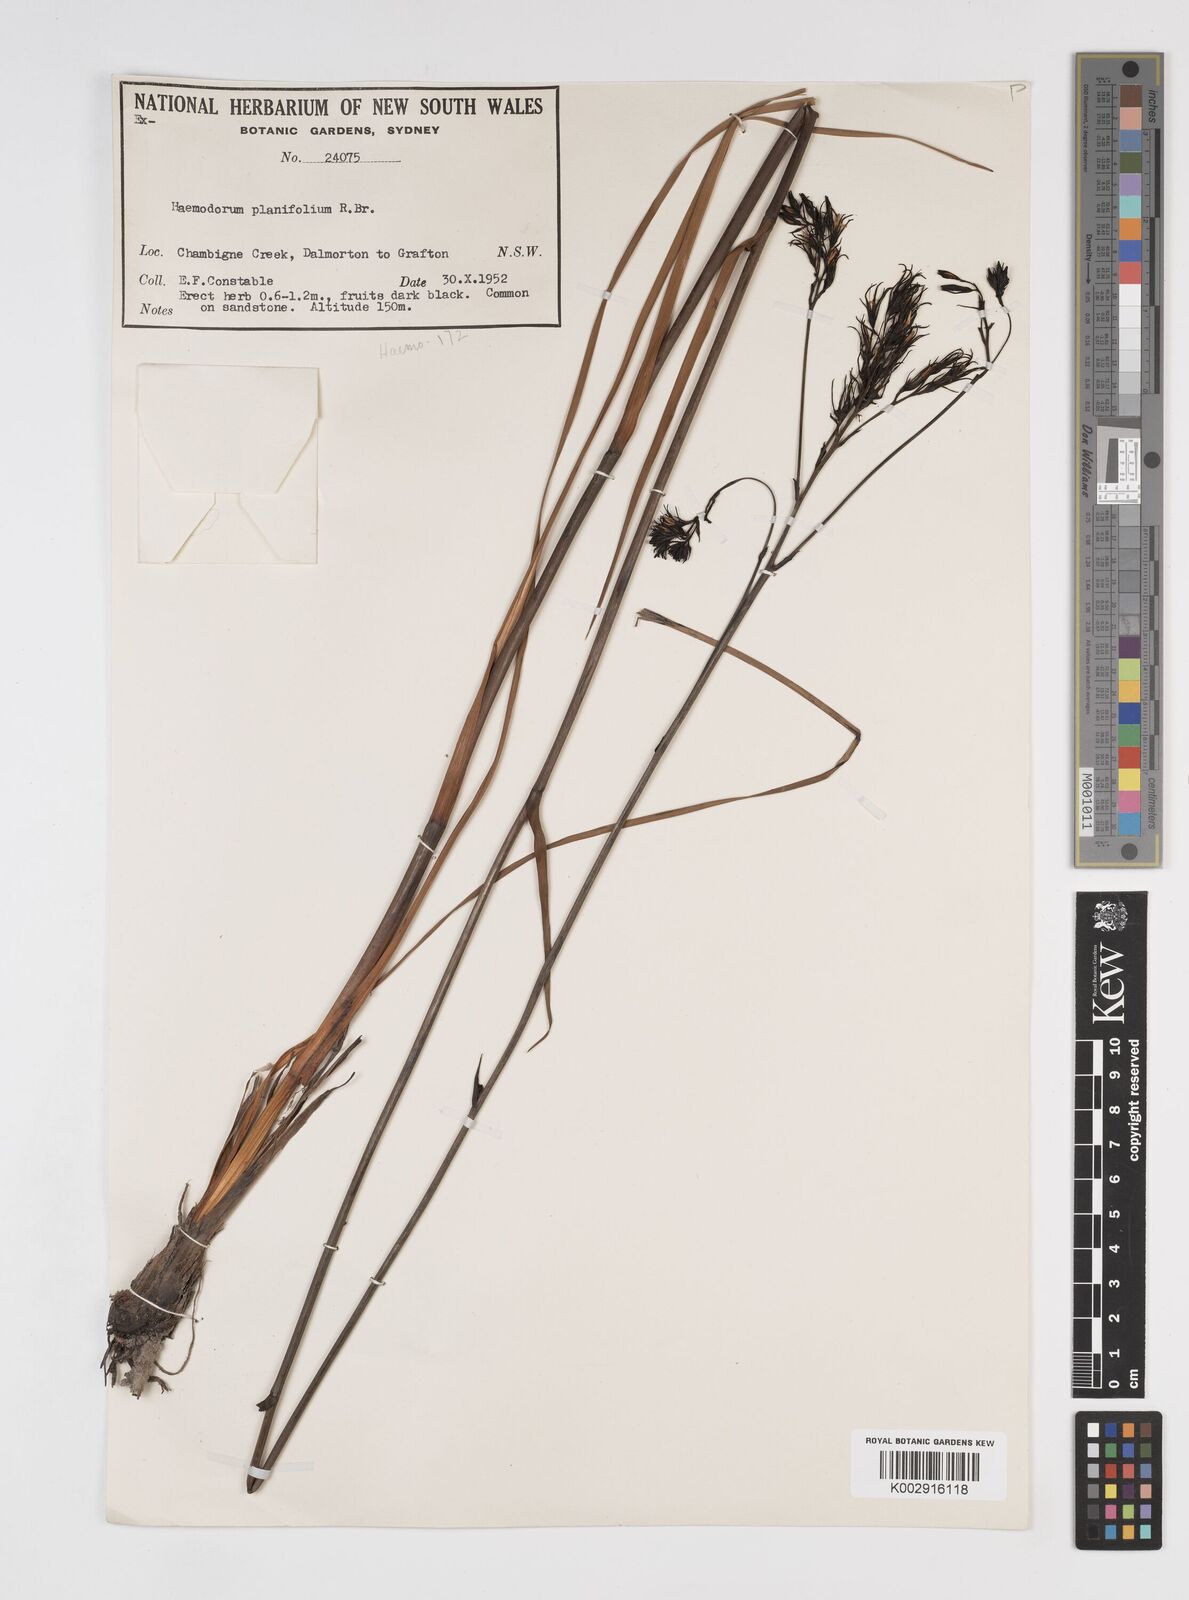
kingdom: Plantae
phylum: Tracheophyta
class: Liliopsida
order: Commelinales
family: Haemodoraceae
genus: Haemodorum
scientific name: Haemodorum planifolium
